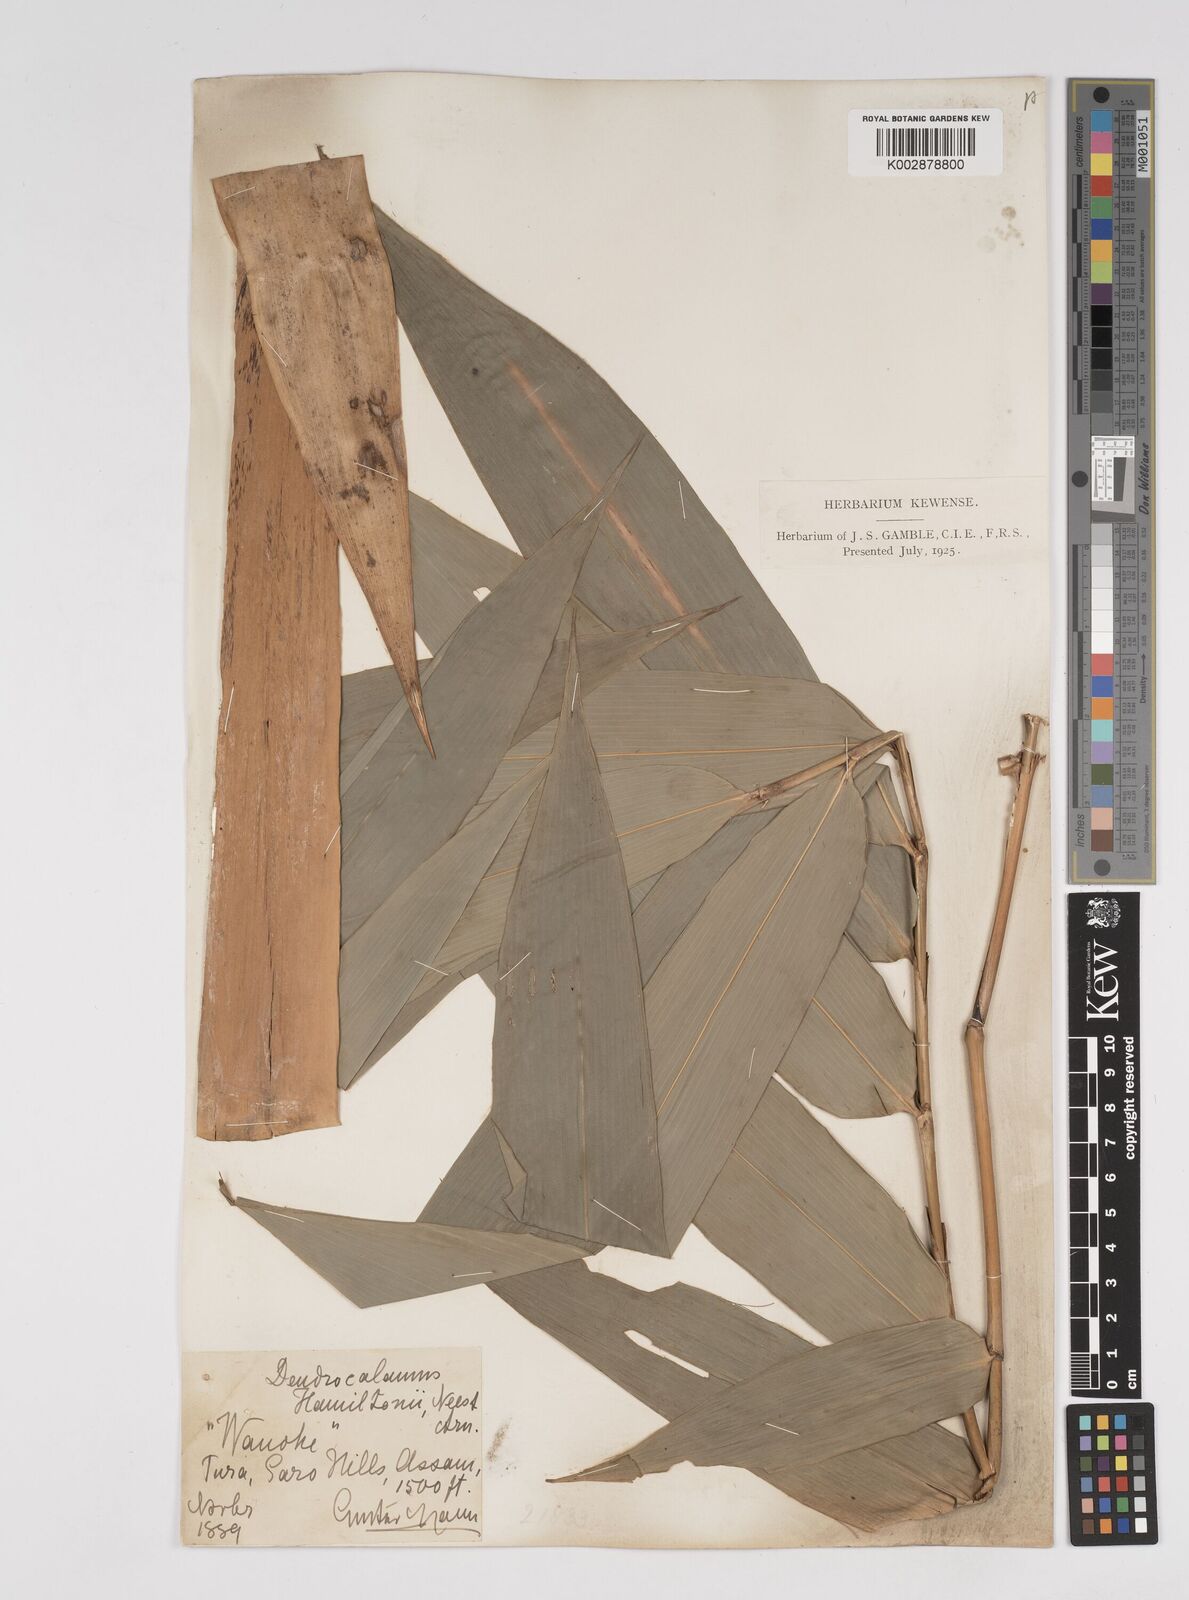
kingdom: Plantae
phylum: Tracheophyta
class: Liliopsida
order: Poales
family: Poaceae
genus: Dendrocalamus
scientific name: Dendrocalamus hamiltonii
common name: Tama bamboo
